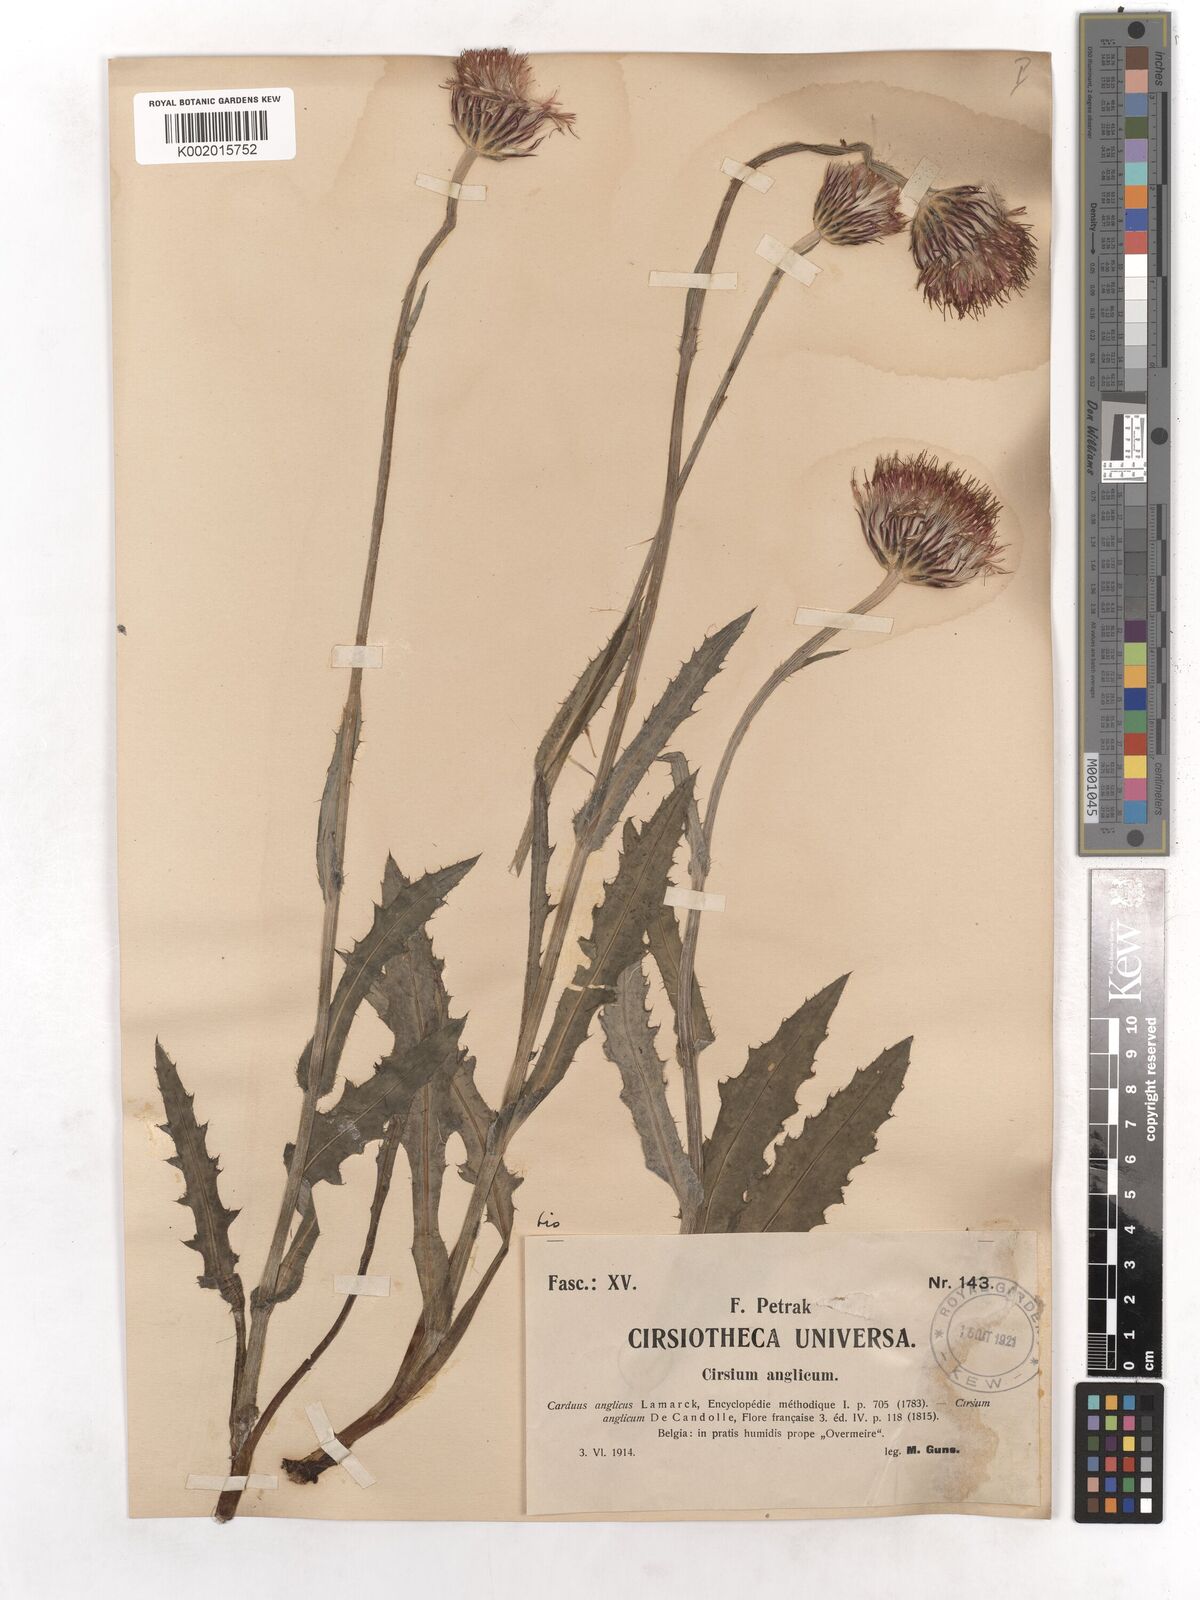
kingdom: Plantae
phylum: Tracheophyta
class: Magnoliopsida
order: Asterales
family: Asteraceae
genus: Cirsium
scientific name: Cirsium dissectum
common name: Meadow thistle
